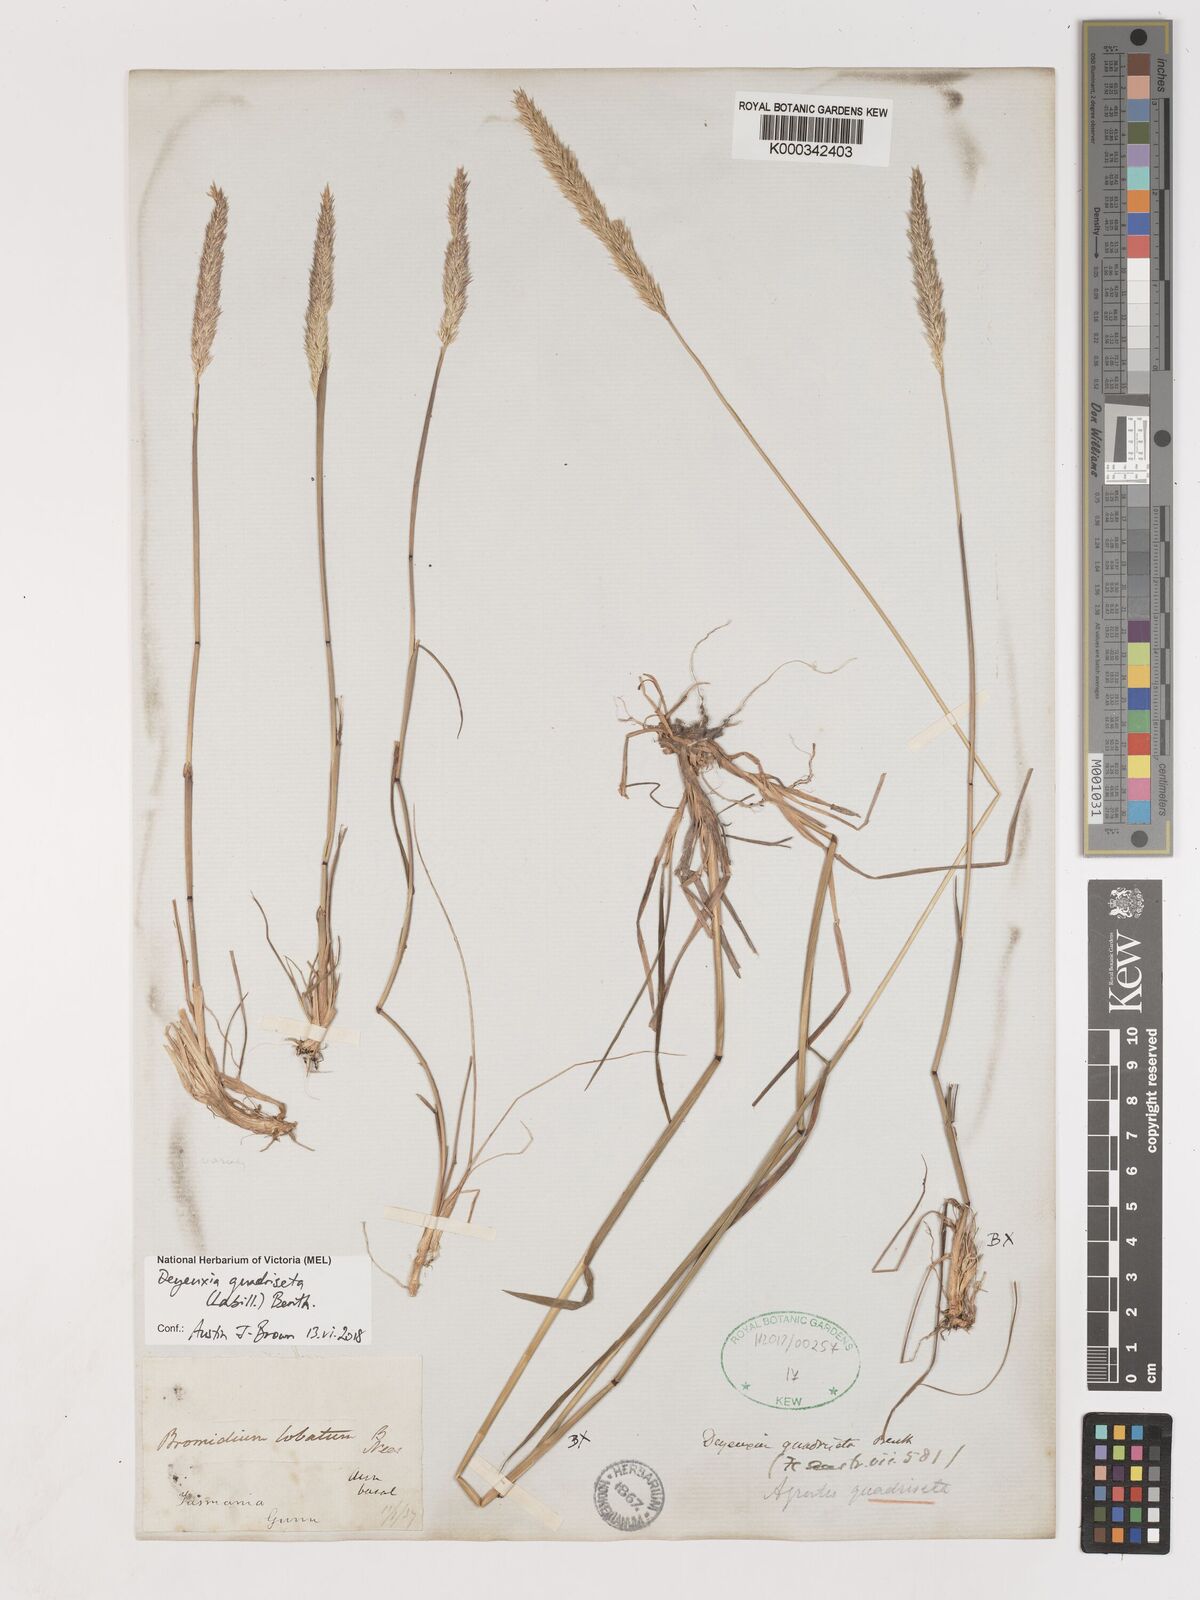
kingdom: Plantae
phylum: Tracheophyta
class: Liliopsida
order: Poales
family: Poaceae
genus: Calamagrostis
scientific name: Calamagrostis quadriseta
